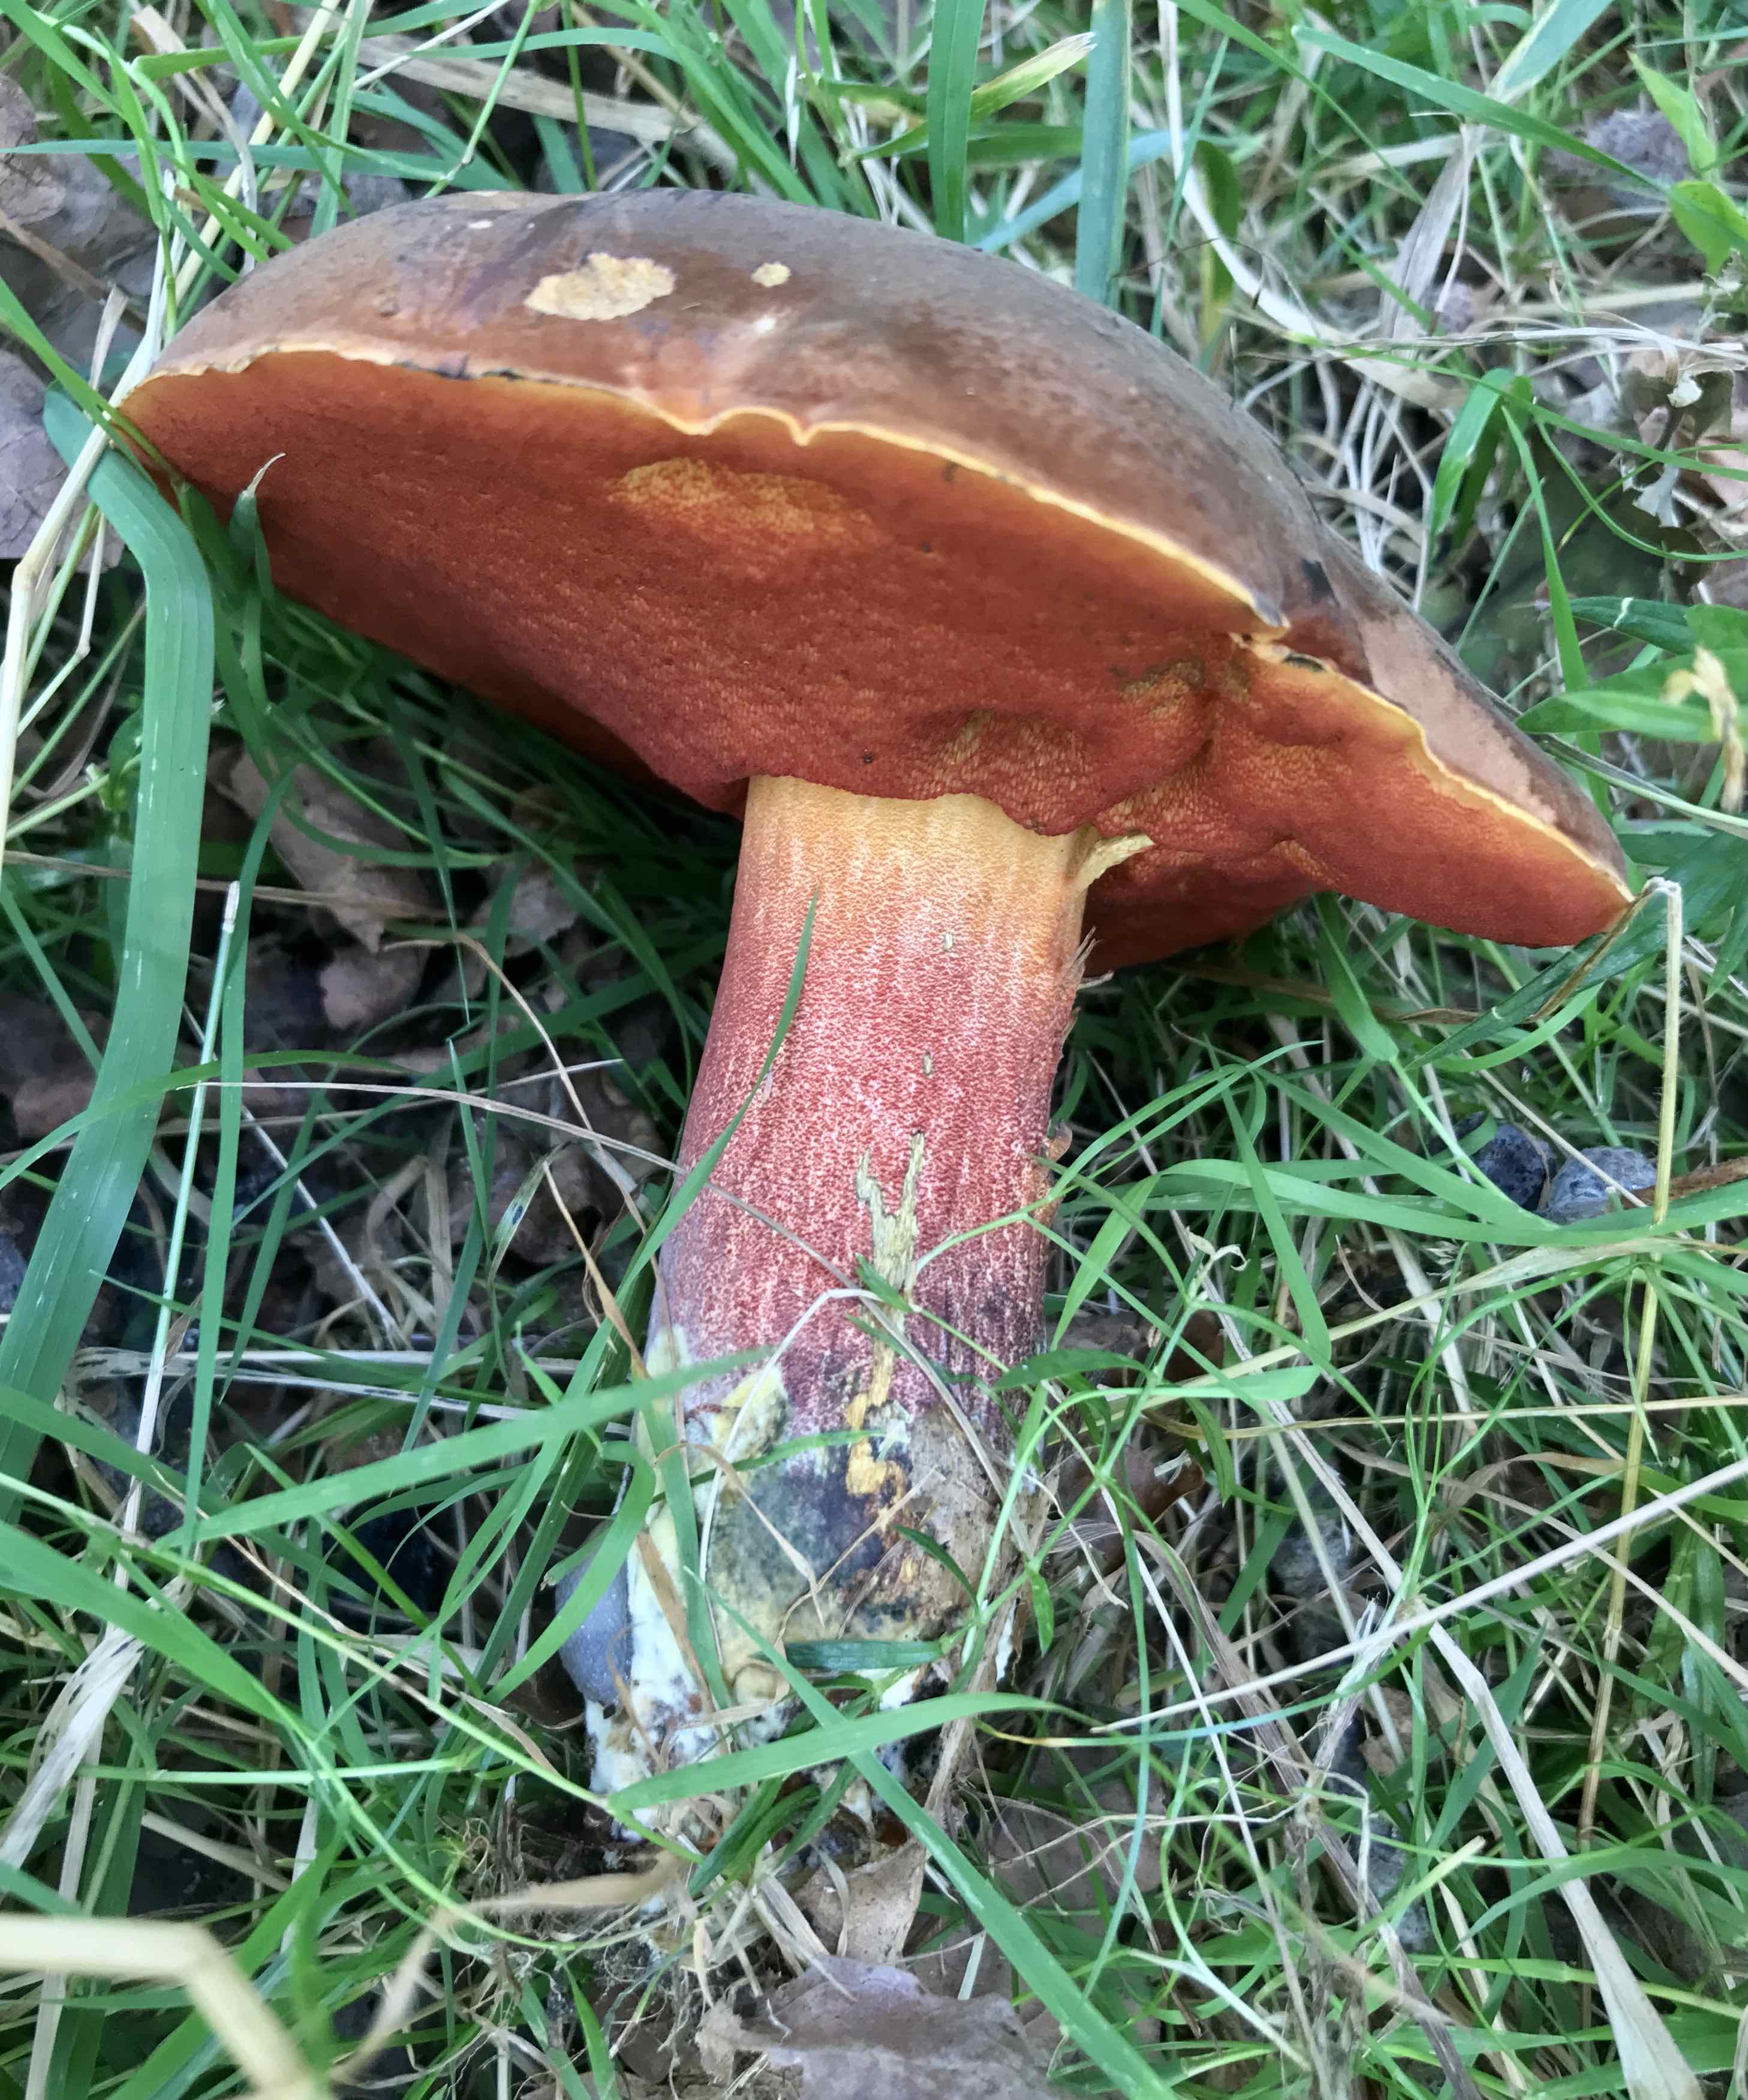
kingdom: Fungi
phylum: Basidiomycota
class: Agaricomycetes
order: Boletales
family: Boletaceae
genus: Neoboletus
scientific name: Neoboletus erythropus
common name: punktstokket indigorørhat
